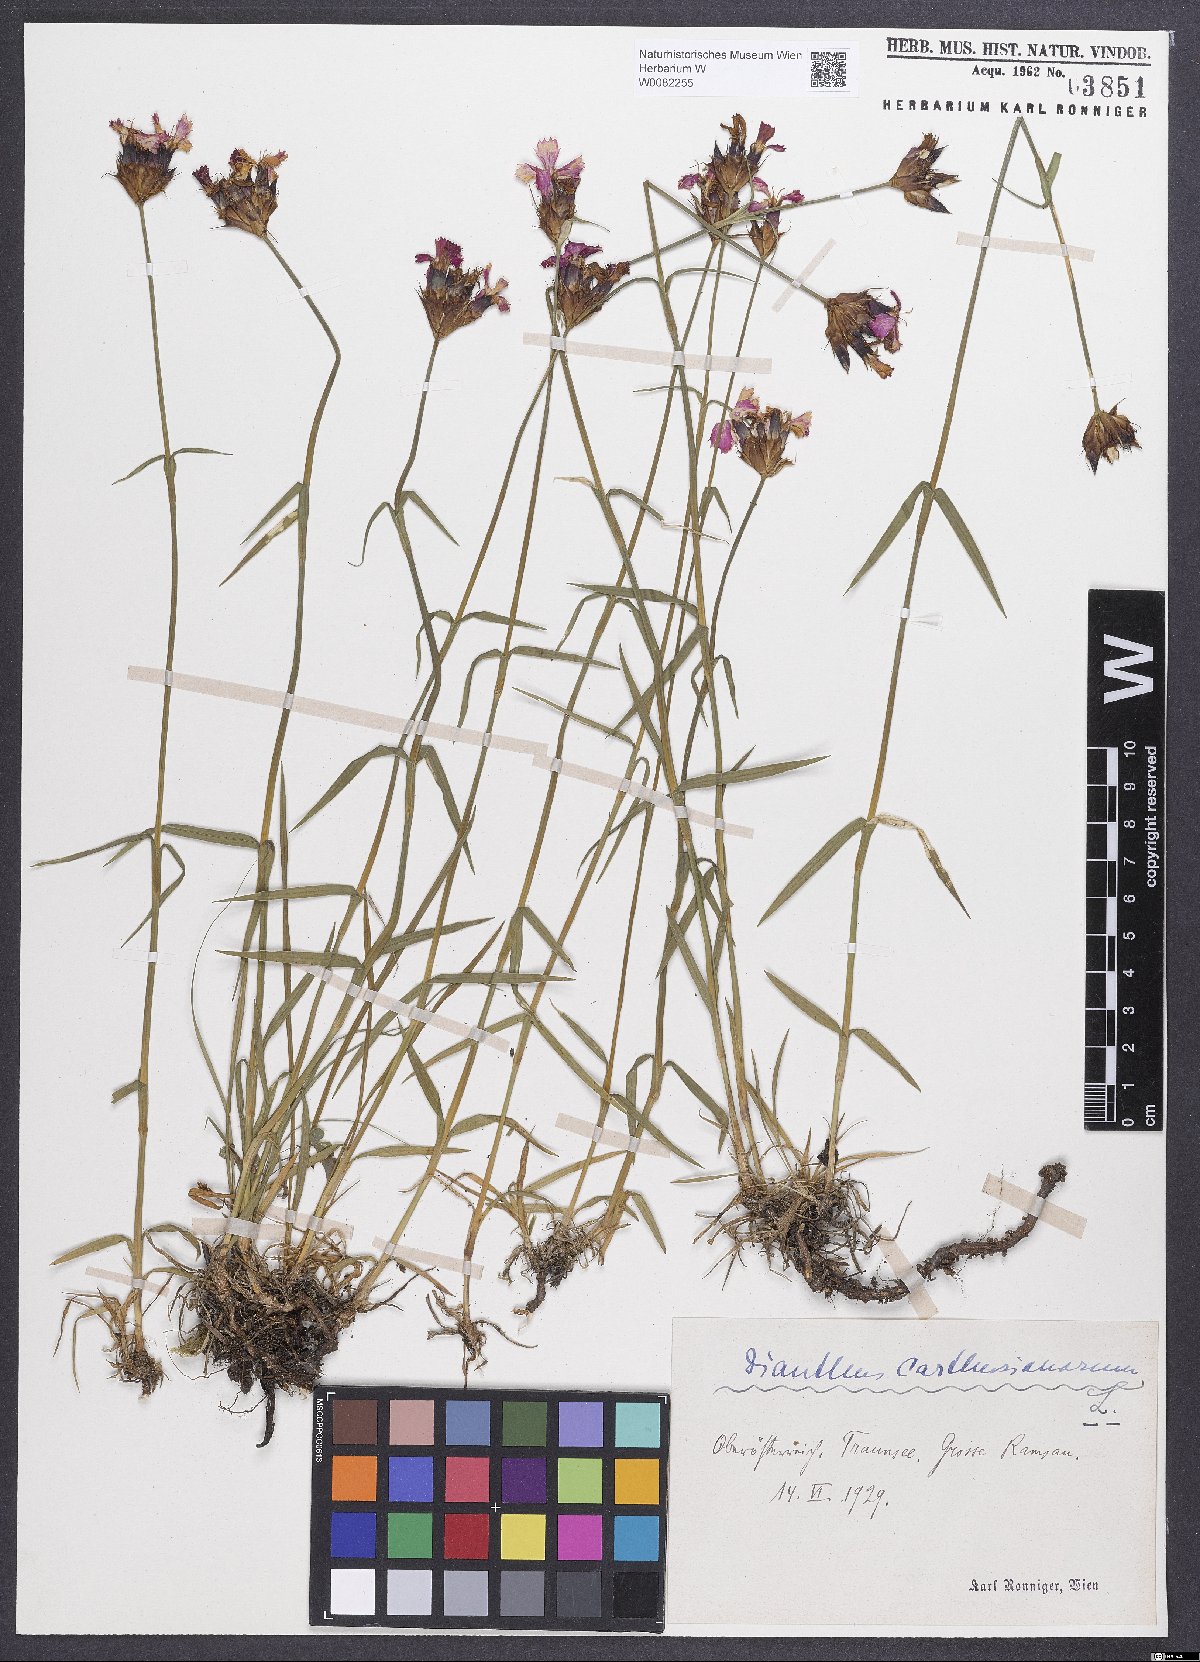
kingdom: Plantae
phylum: Tracheophyta
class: Magnoliopsida
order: Caryophyllales
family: Caryophyllaceae
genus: Dianthus
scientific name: Dianthus carthusianorum
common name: Carthusian pink
